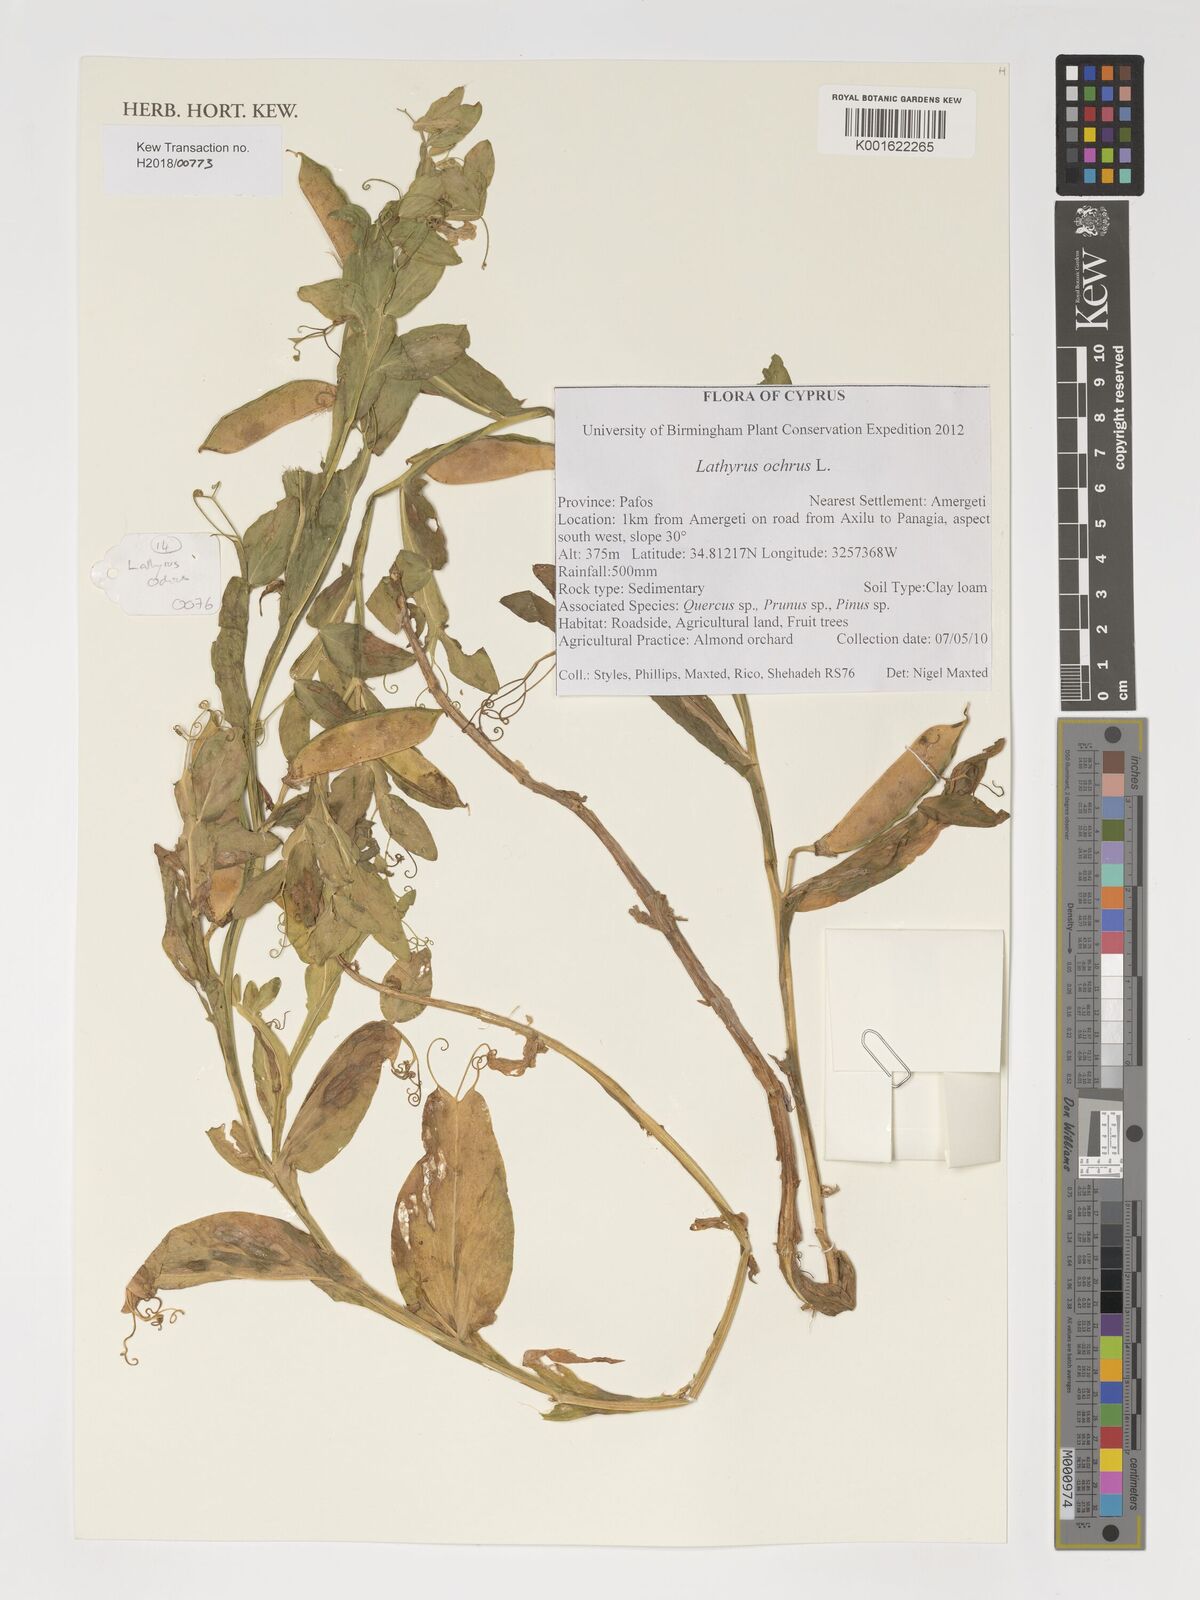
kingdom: Plantae
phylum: Tracheophyta
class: Magnoliopsida
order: Fabales
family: Fabaceae
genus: Lathyrus
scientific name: Lathyrus ochrus
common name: Winged vetchling
